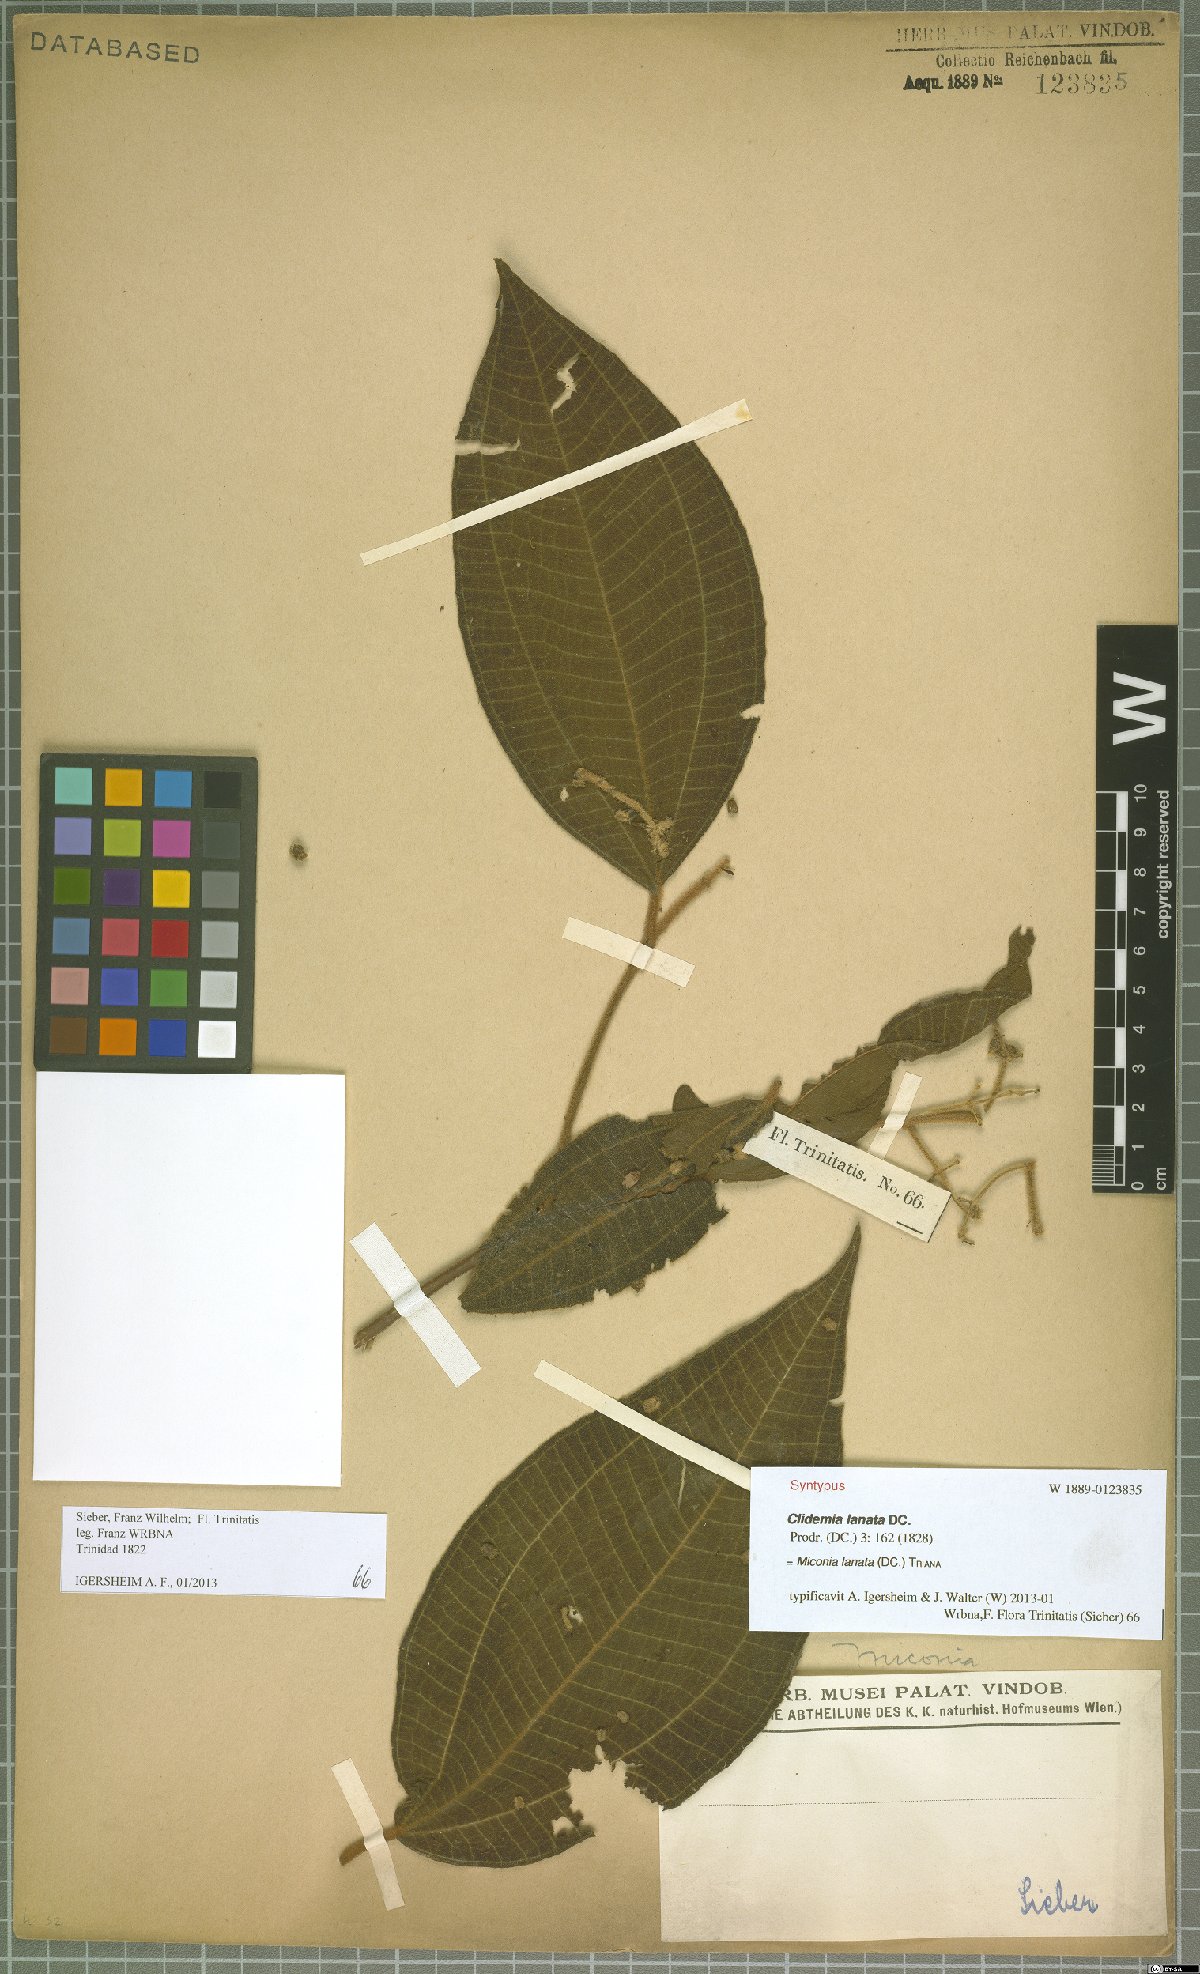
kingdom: Plantae
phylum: Tracheophyta
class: Magnoliopsida
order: Myrtales
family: Melastomataceae
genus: Miconia
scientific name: Miconia lanata
